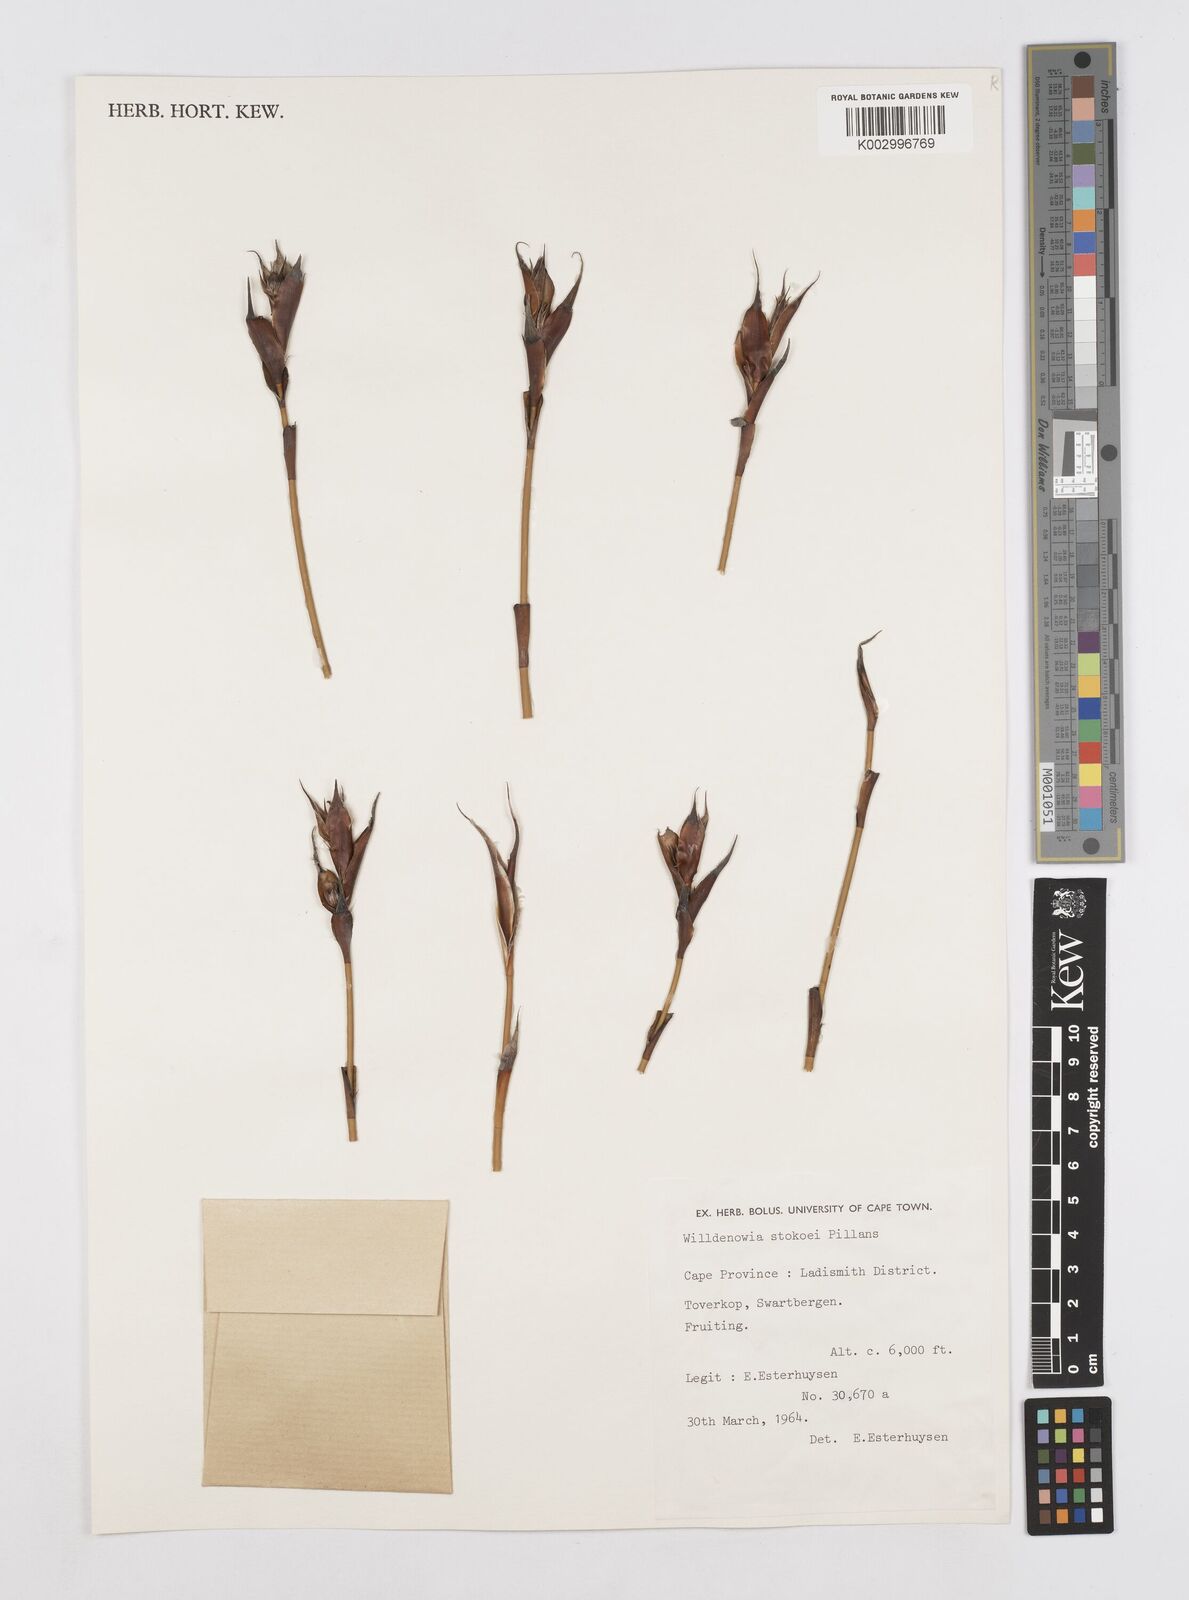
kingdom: Plantae
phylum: Tracheophyta
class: Liliopsida
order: Poales
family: Restionaceae
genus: Willdenowia
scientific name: Willdenowia stokoei
